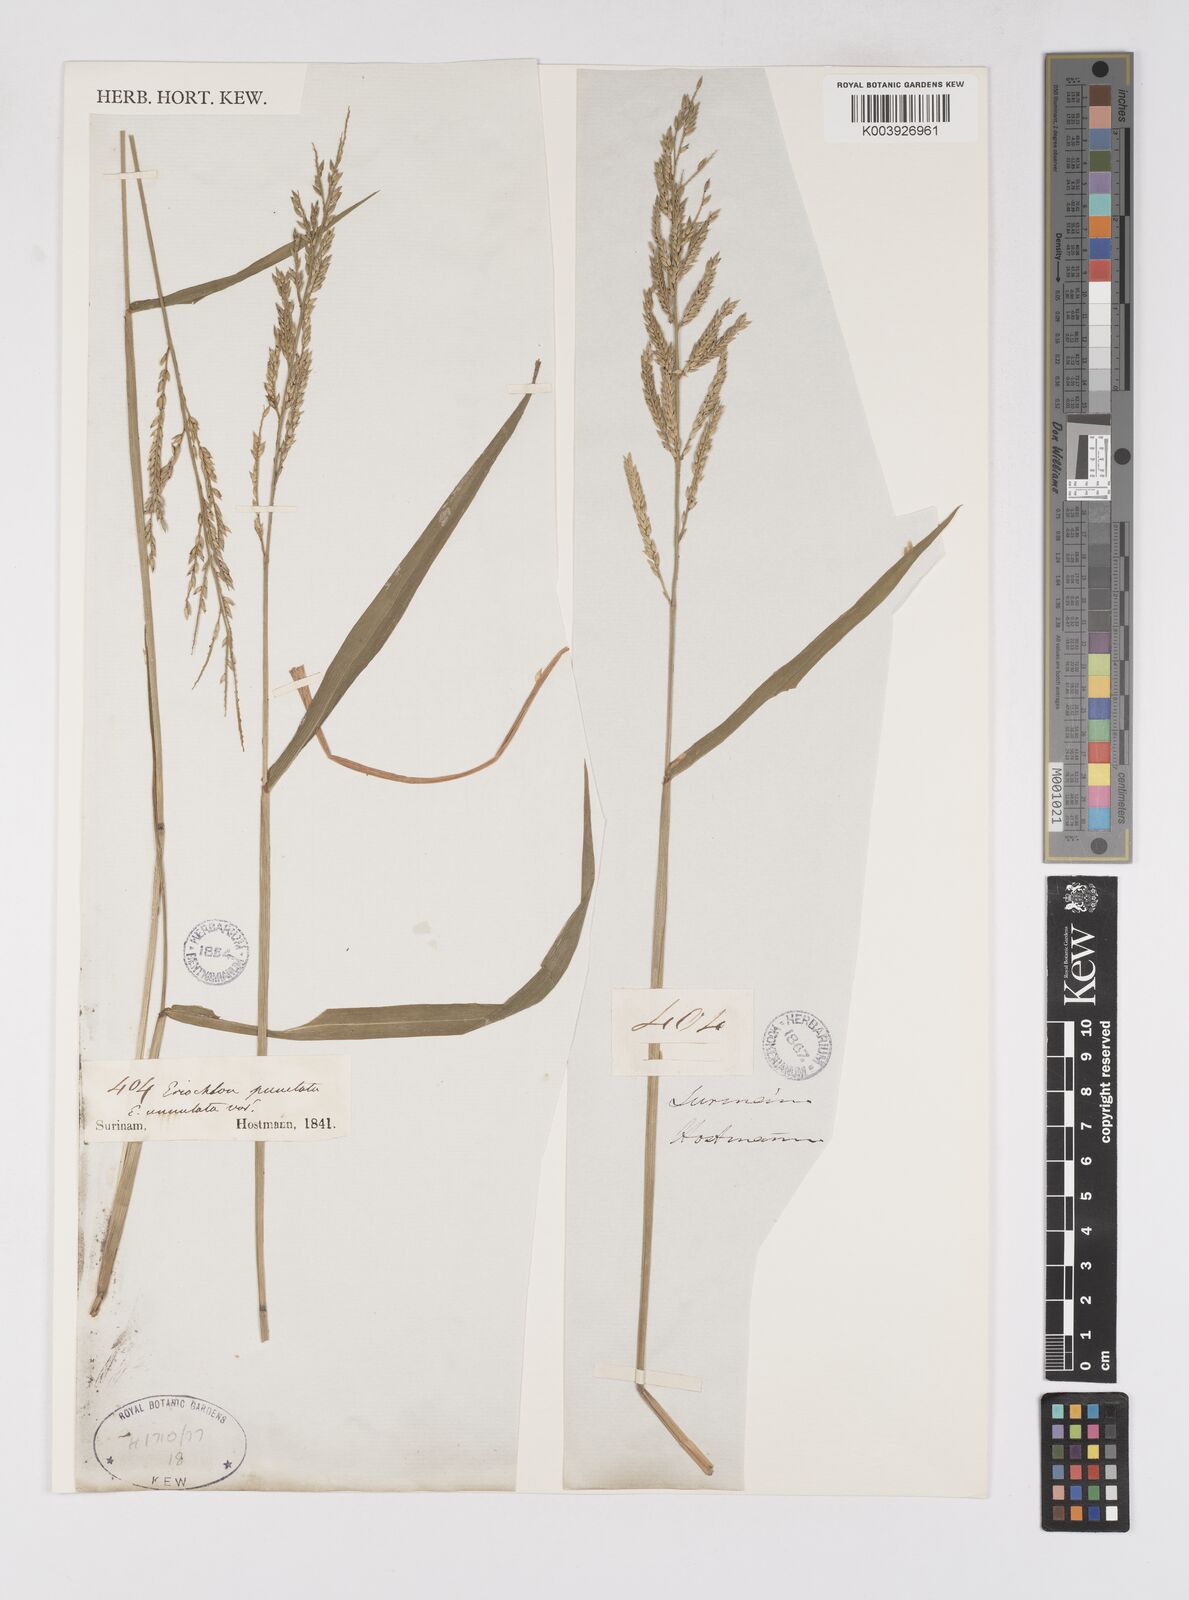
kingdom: Plantae
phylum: Tracheophyta
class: Liliopsida
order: Poales
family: Poaceae
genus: Eriochloa
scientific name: Eriochloa punctata
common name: Louisiana cupgrass
